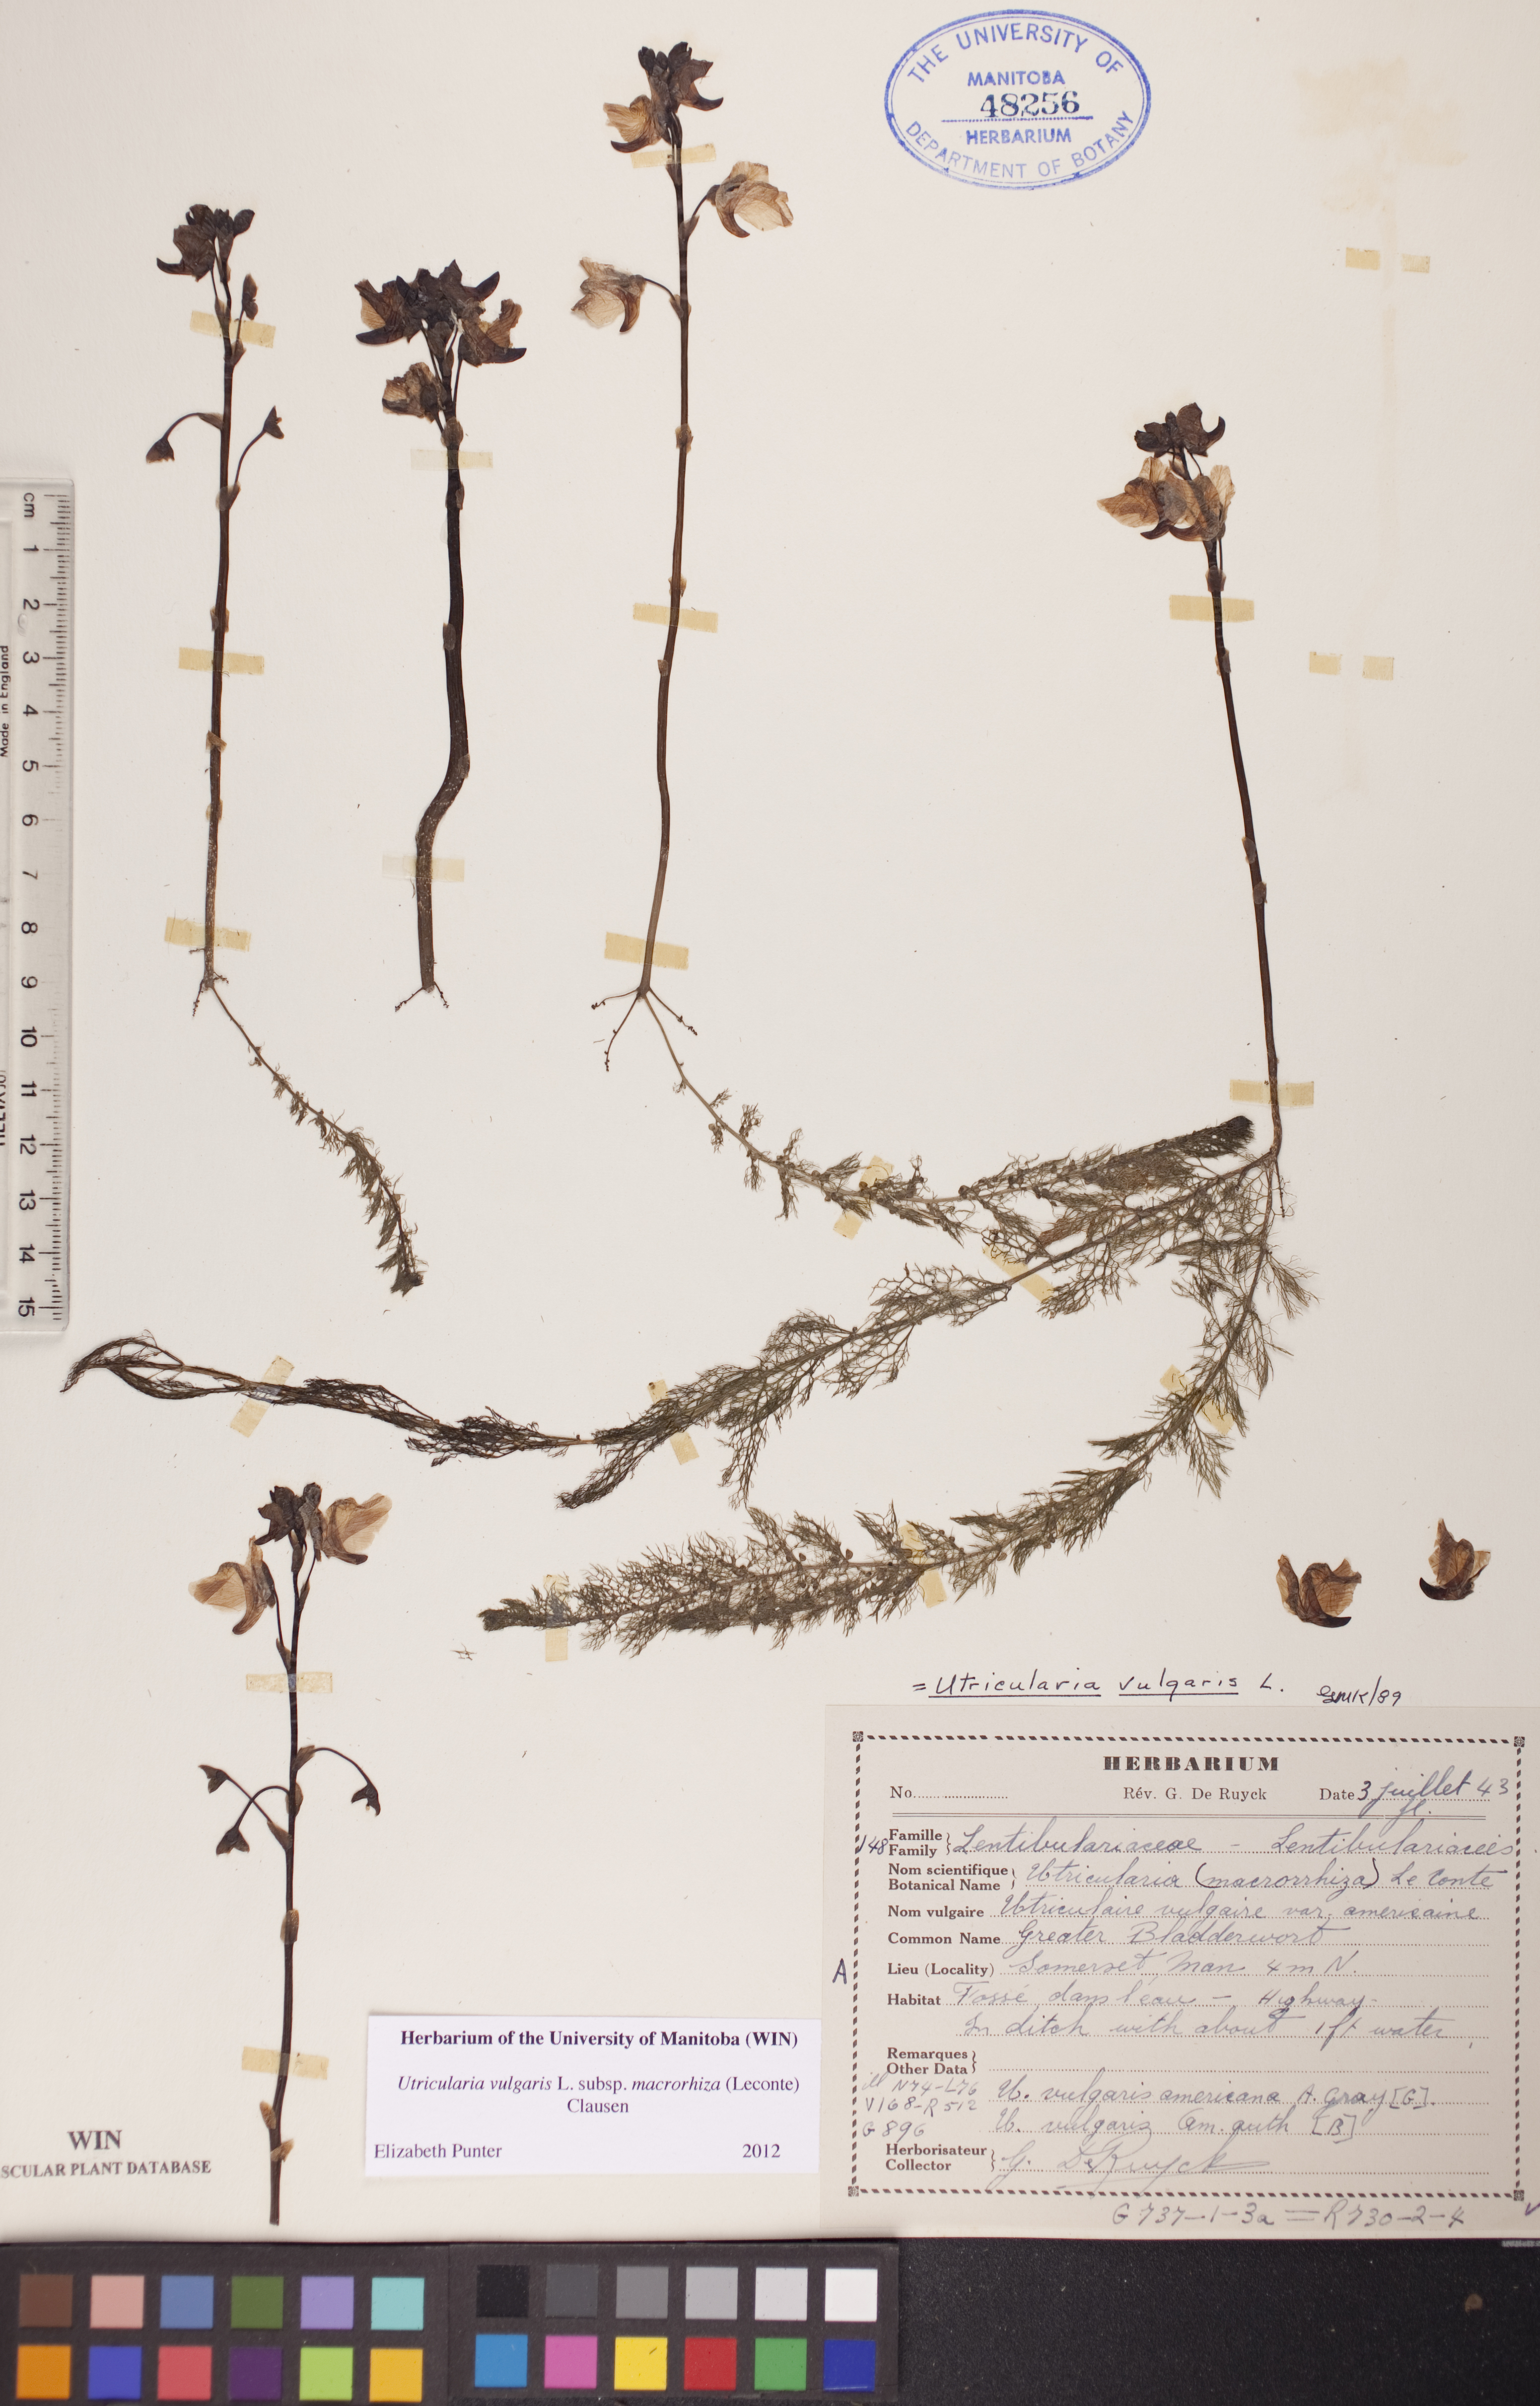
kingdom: Plantae
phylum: Tracheophyta
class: Magnoliopsida
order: Lamiales
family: Lentibulariaceae
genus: Utricularia
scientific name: Utricularia macrorhiza
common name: Common bladderwort
